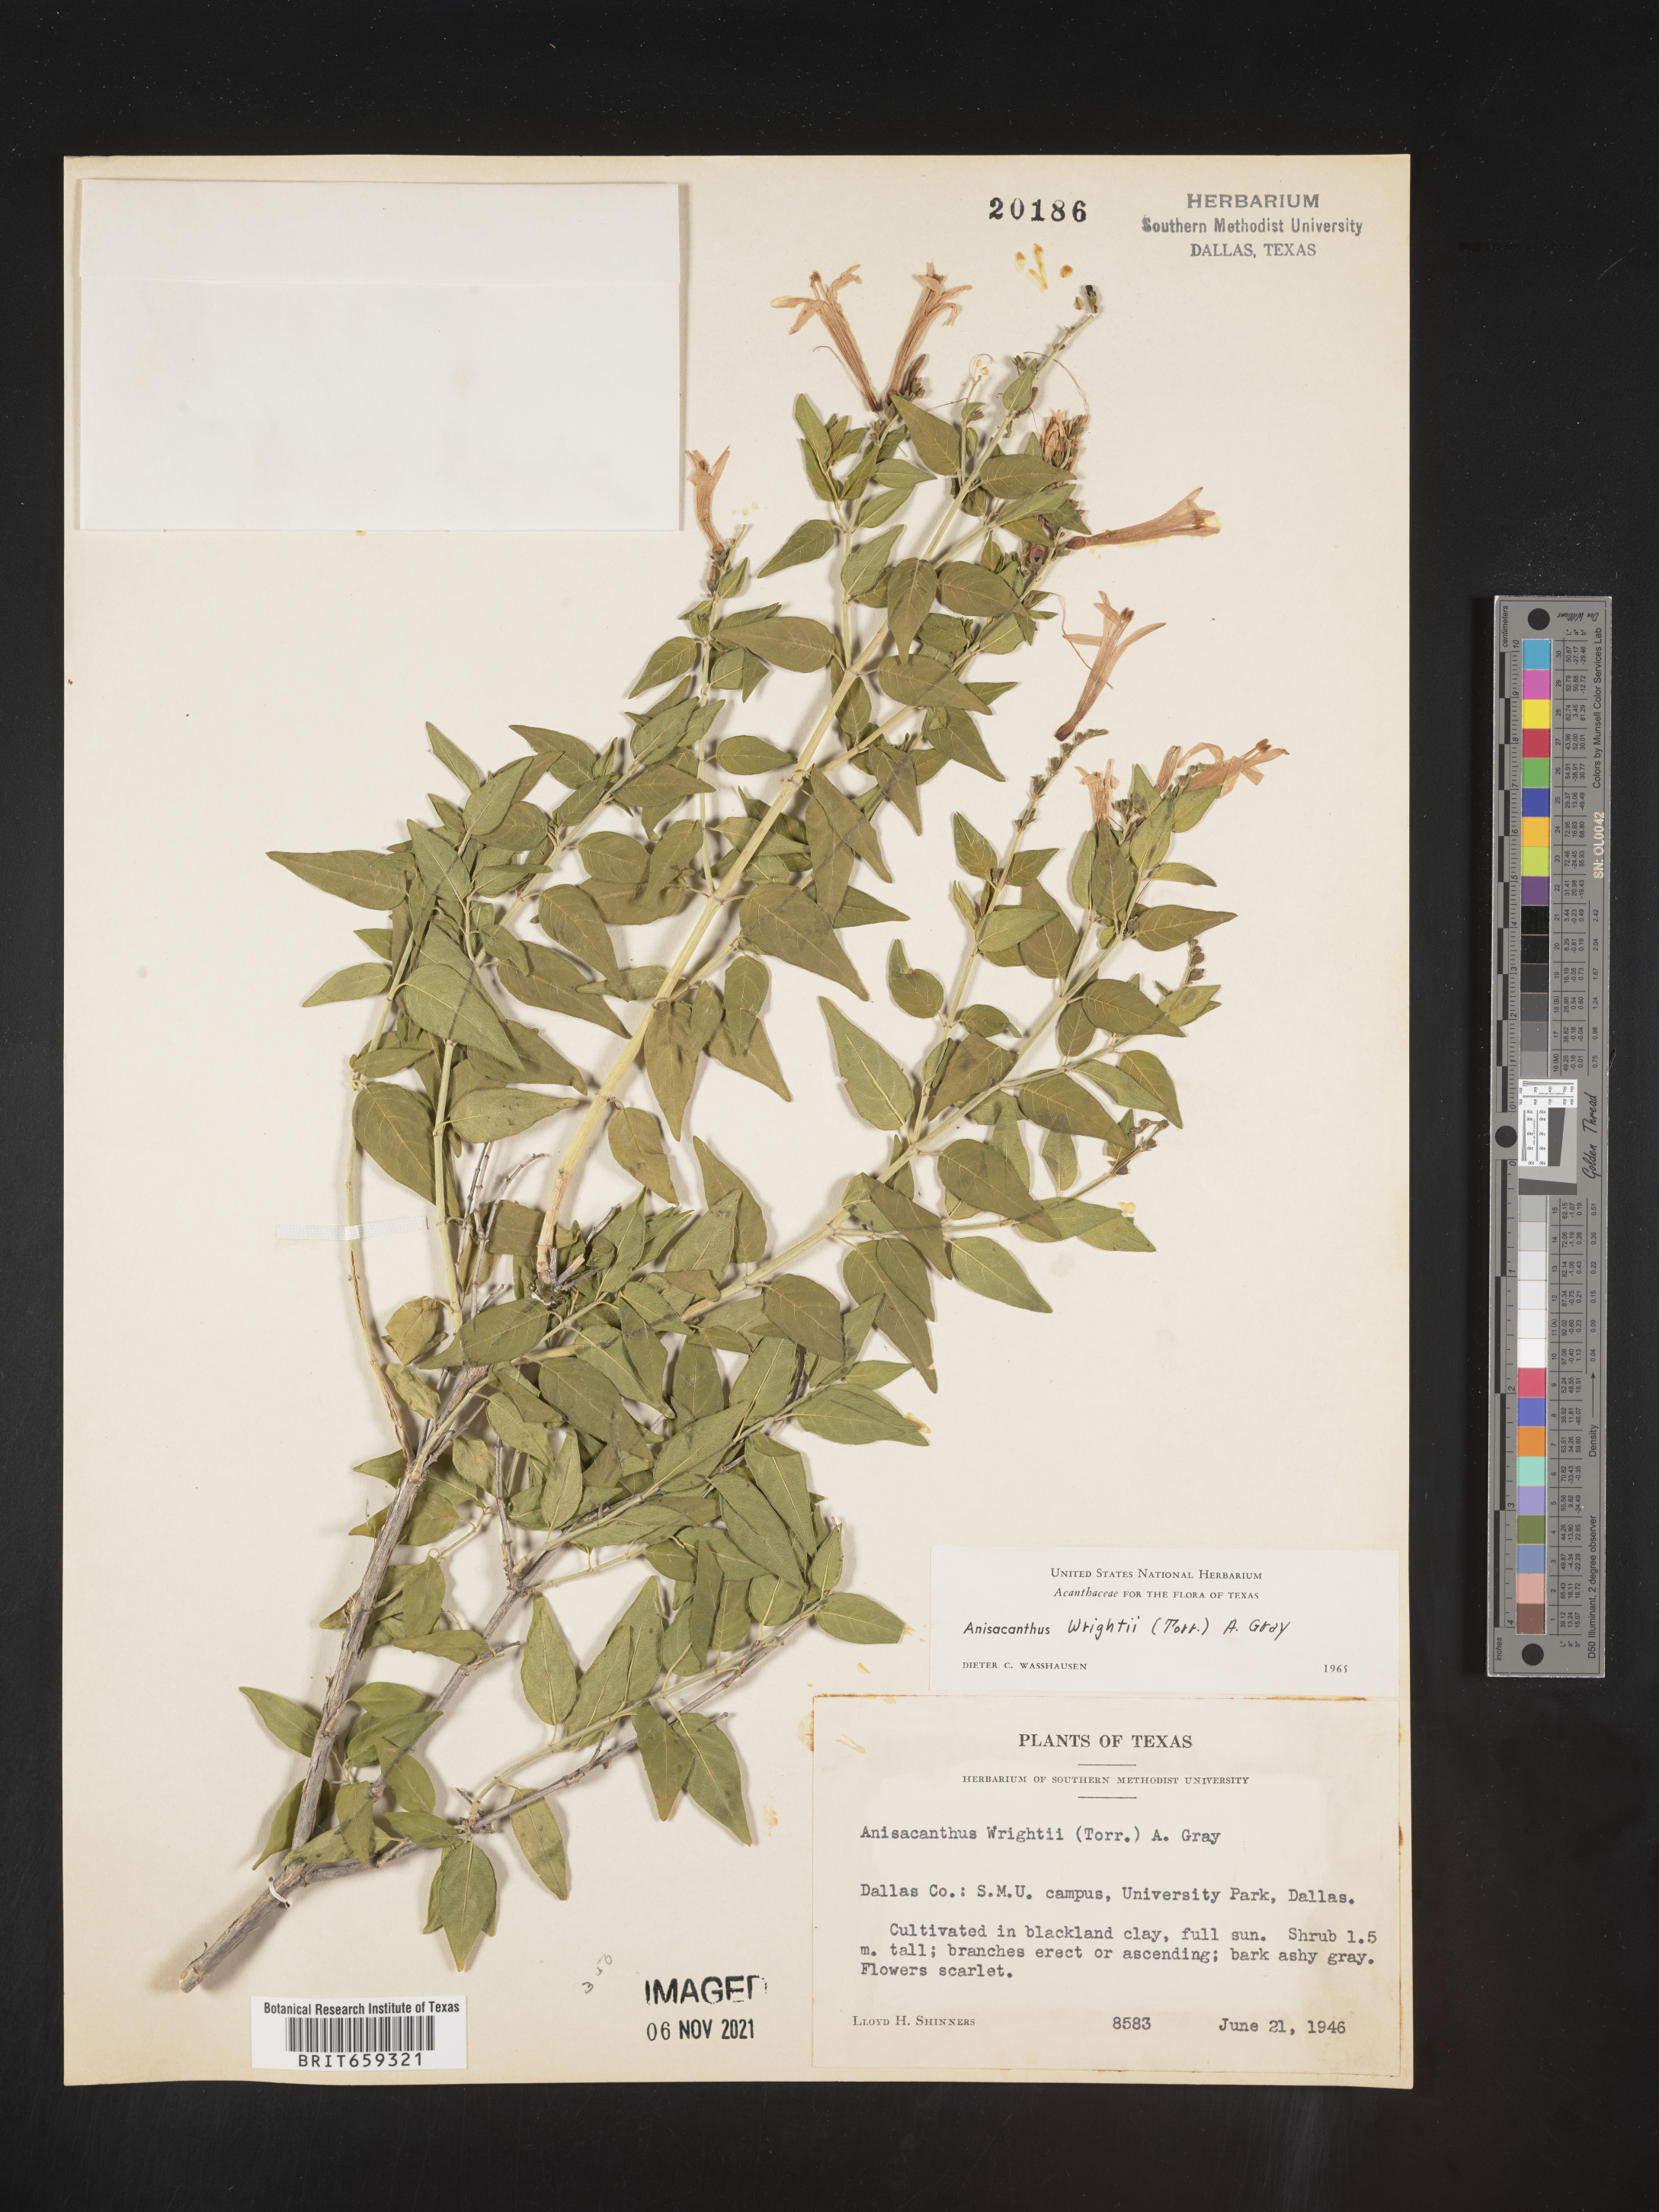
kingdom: Plantae
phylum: Tracheophyta
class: Magnoliopsida
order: Lamiales
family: Acanthaceae
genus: Anisacanthus
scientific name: Anisacanthus
